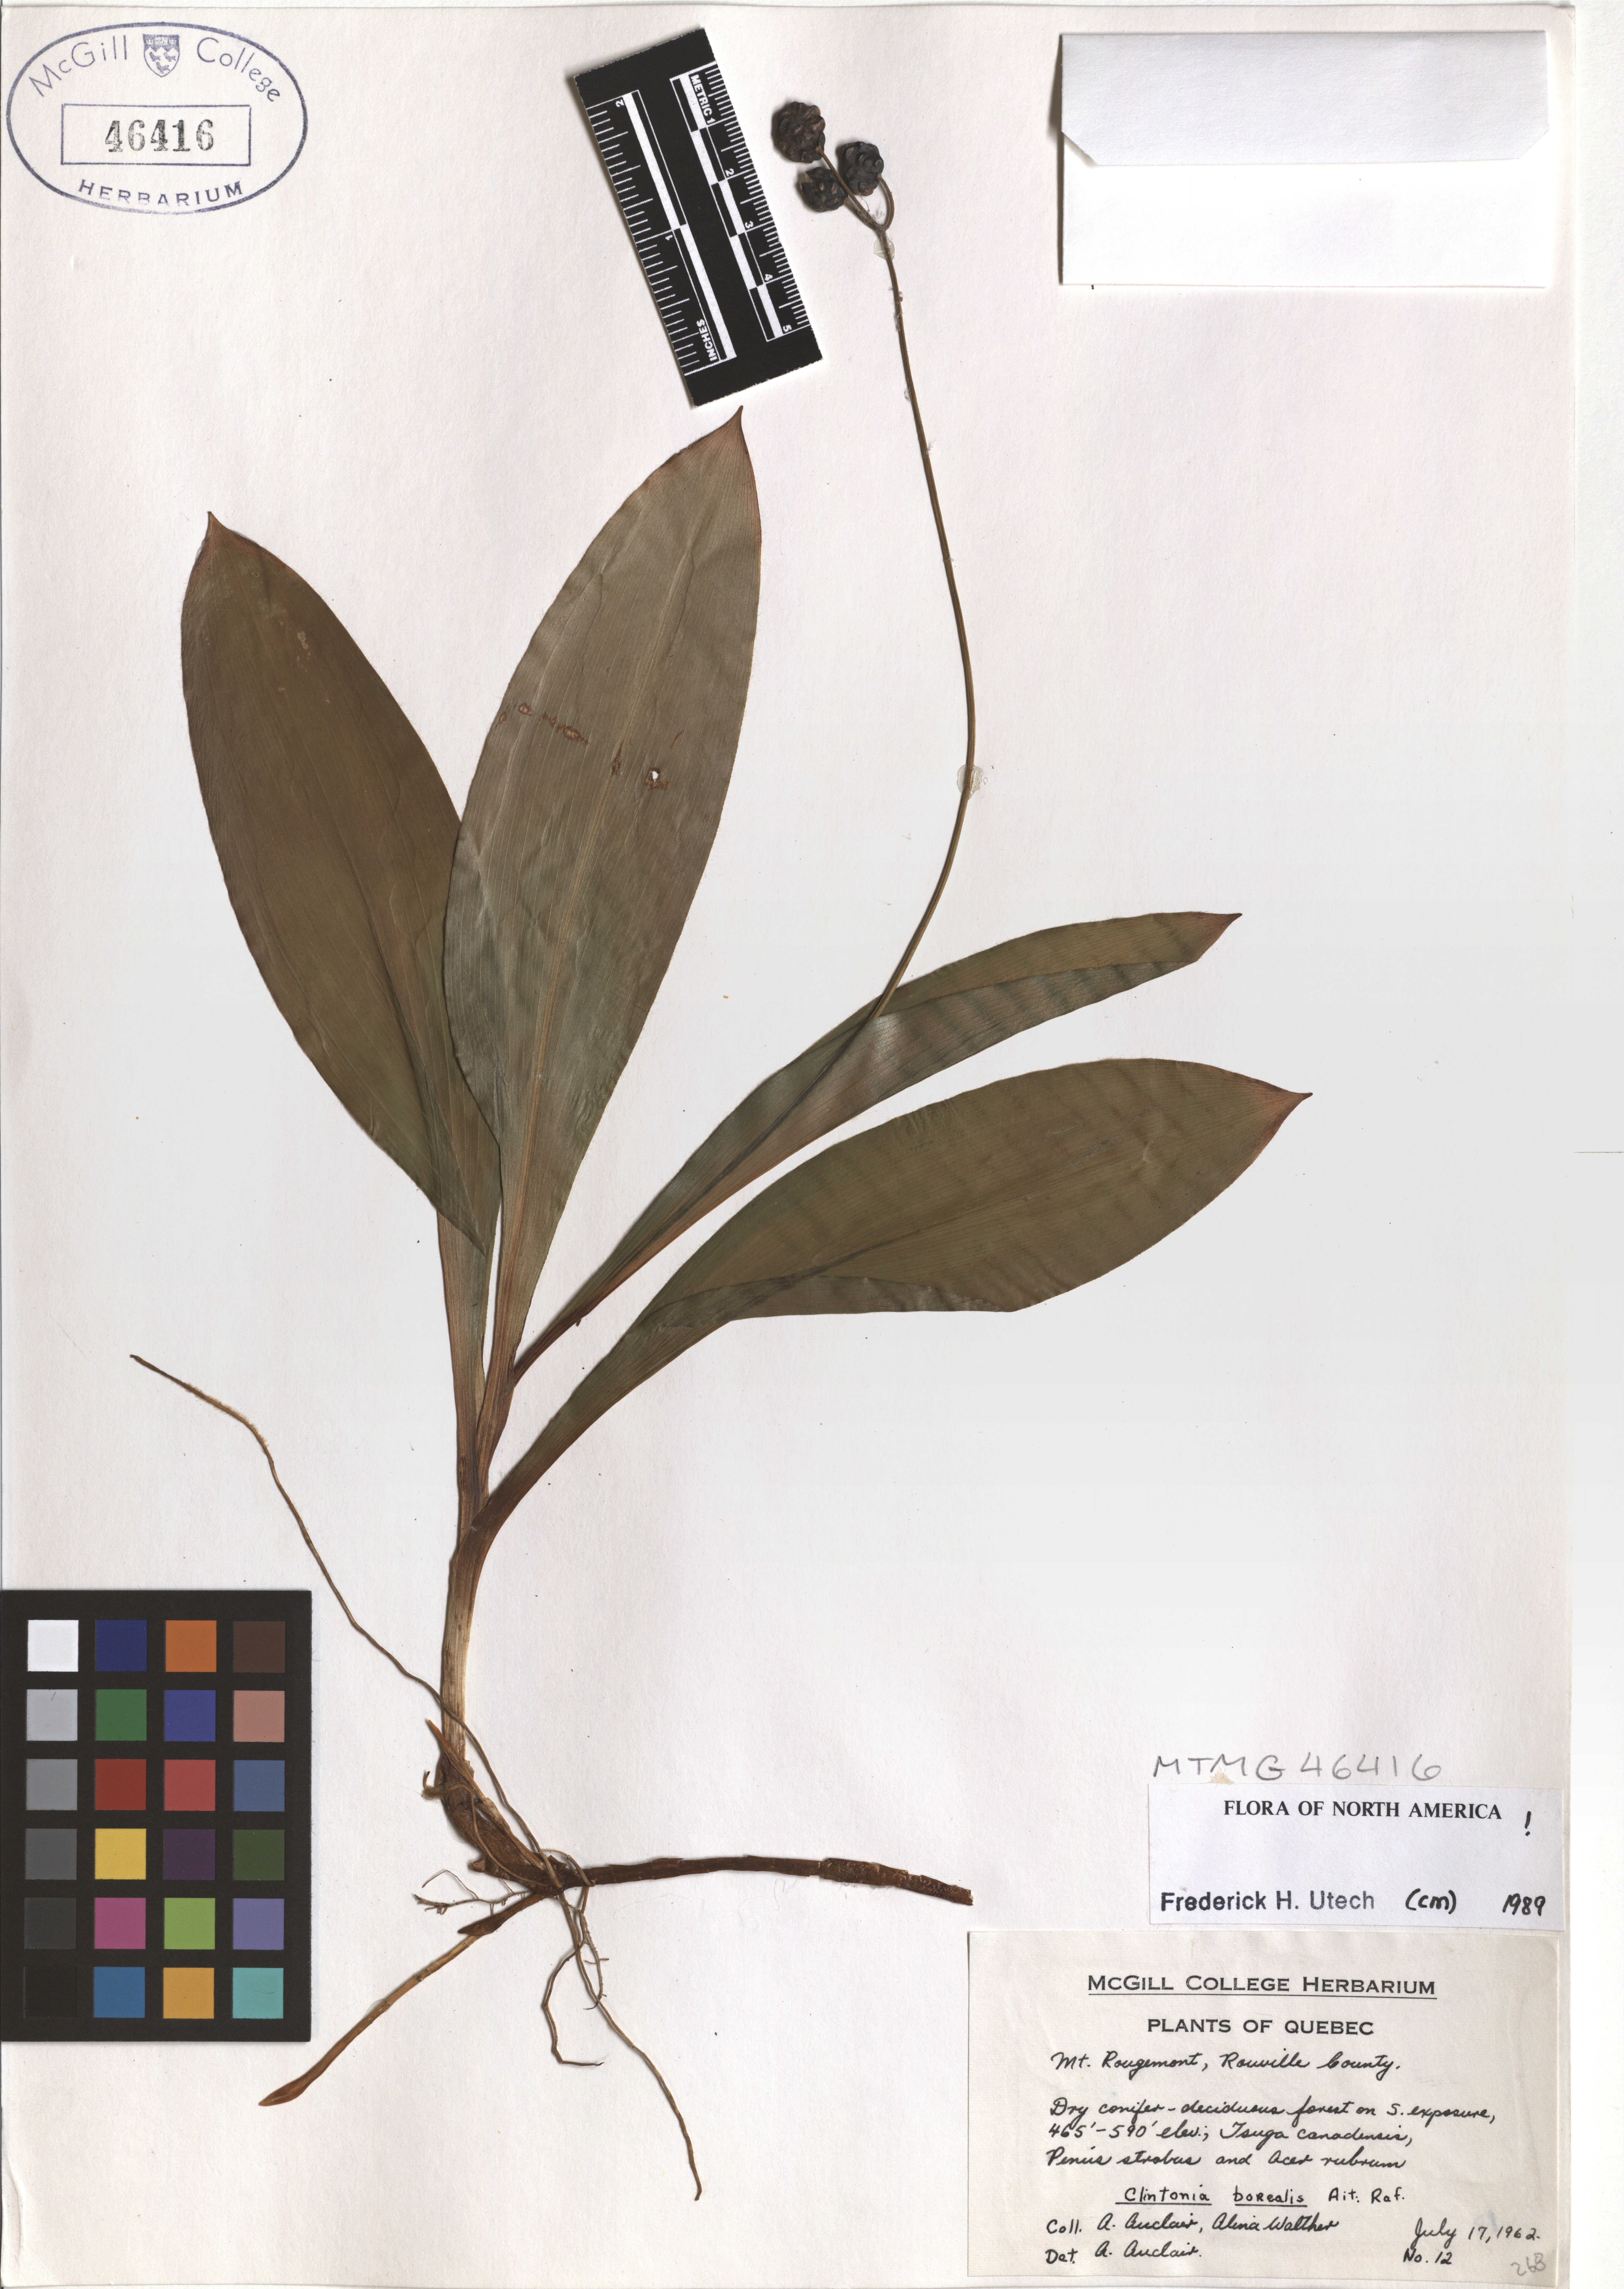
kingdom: Plantae
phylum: Tracheophyta
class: Liliopsida
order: Liliales
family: Liliaceae
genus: Clintonia
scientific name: Clintonia borealis
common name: Yellow clintonia
